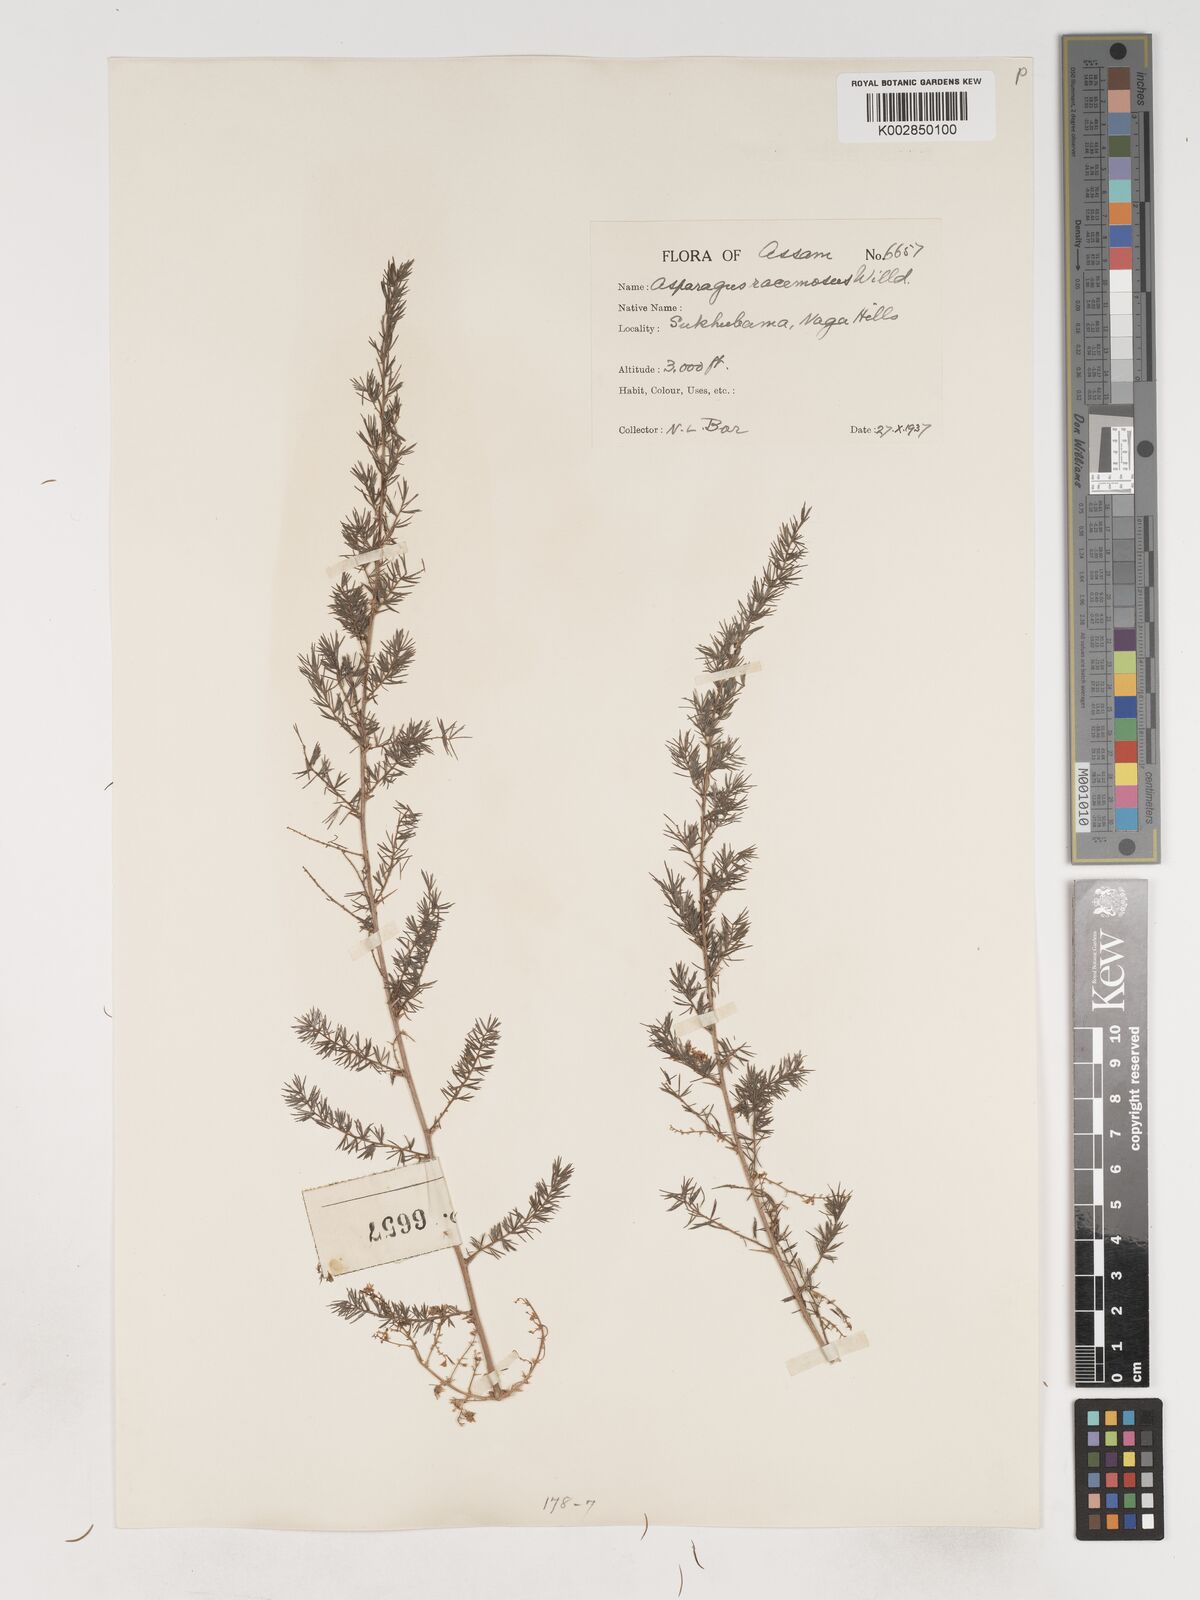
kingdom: Plantae
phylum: Tracheophyta
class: Liliopsida
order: Asparagales
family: Asparagaceae
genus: Asparagus
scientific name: Asparagus racemosus
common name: Asparagus-fern
